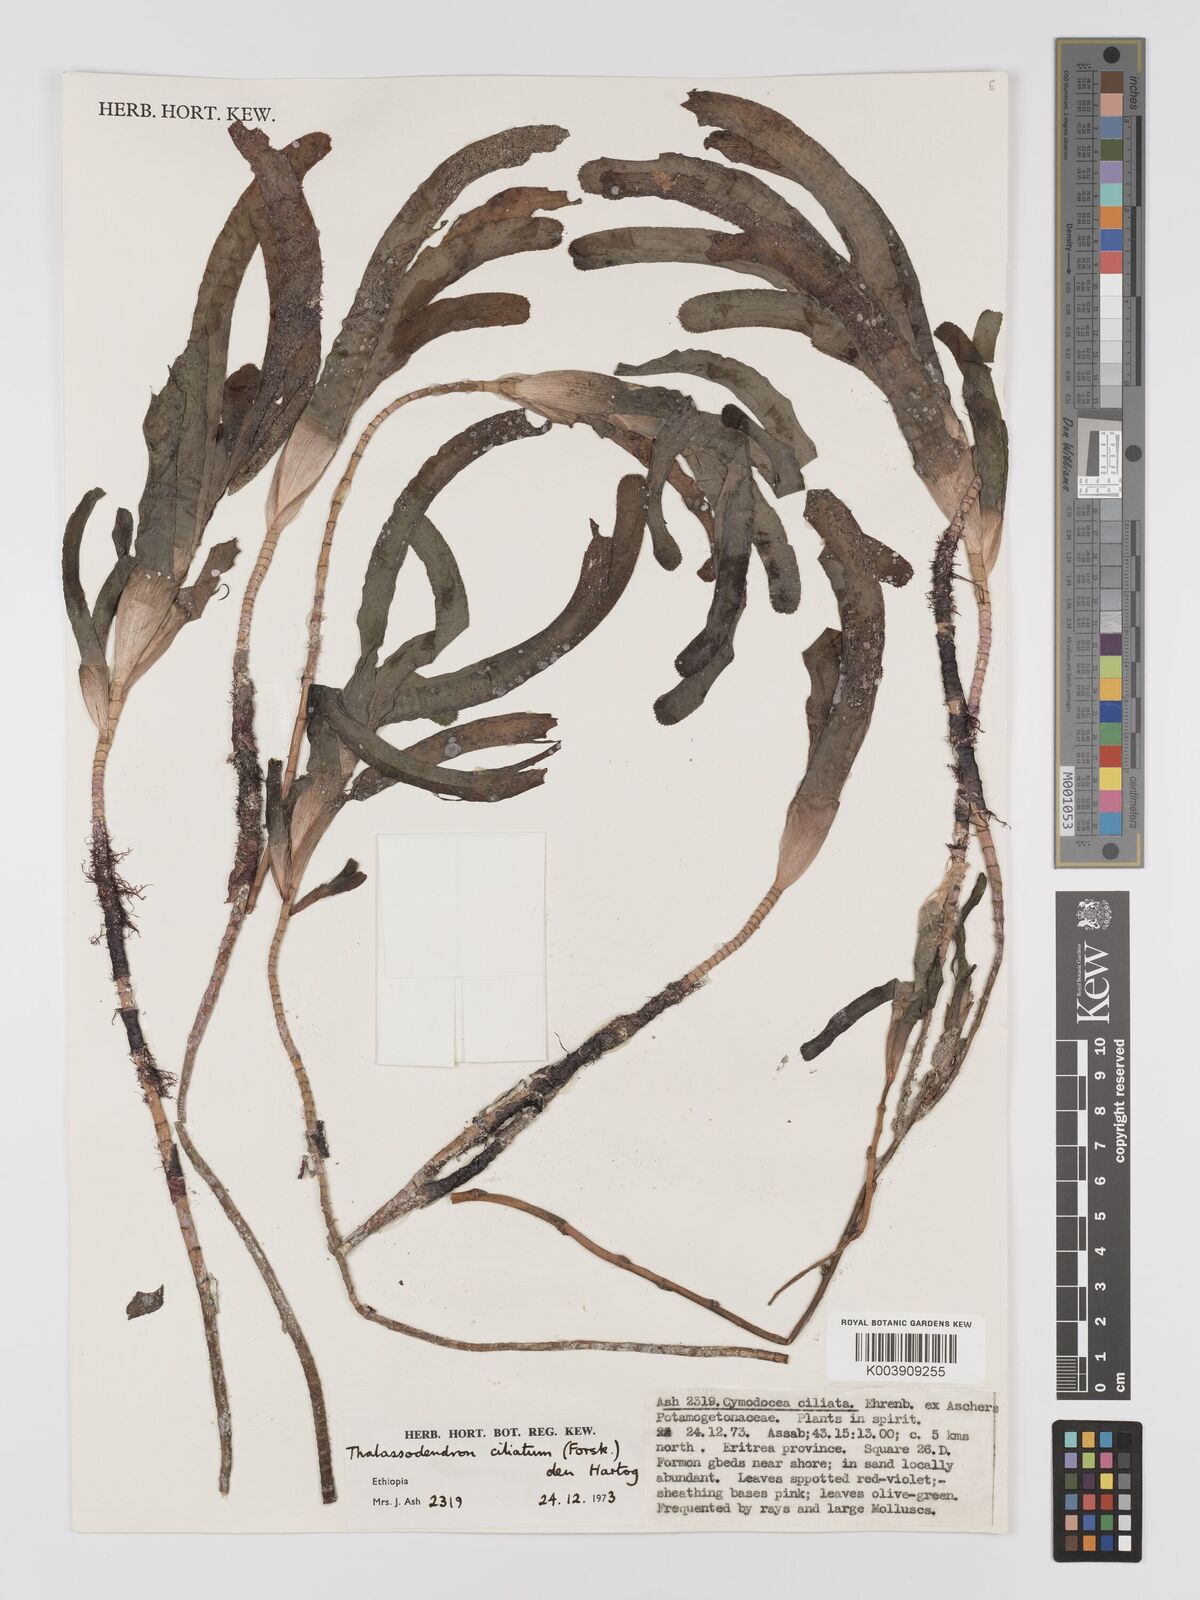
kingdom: Plantae
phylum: Tracheophyta
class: Liliopsida
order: Alismatales
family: Cymodoceaceae
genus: Thalassodendron
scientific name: Thalassodendron ciliatum
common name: Species code: tc
